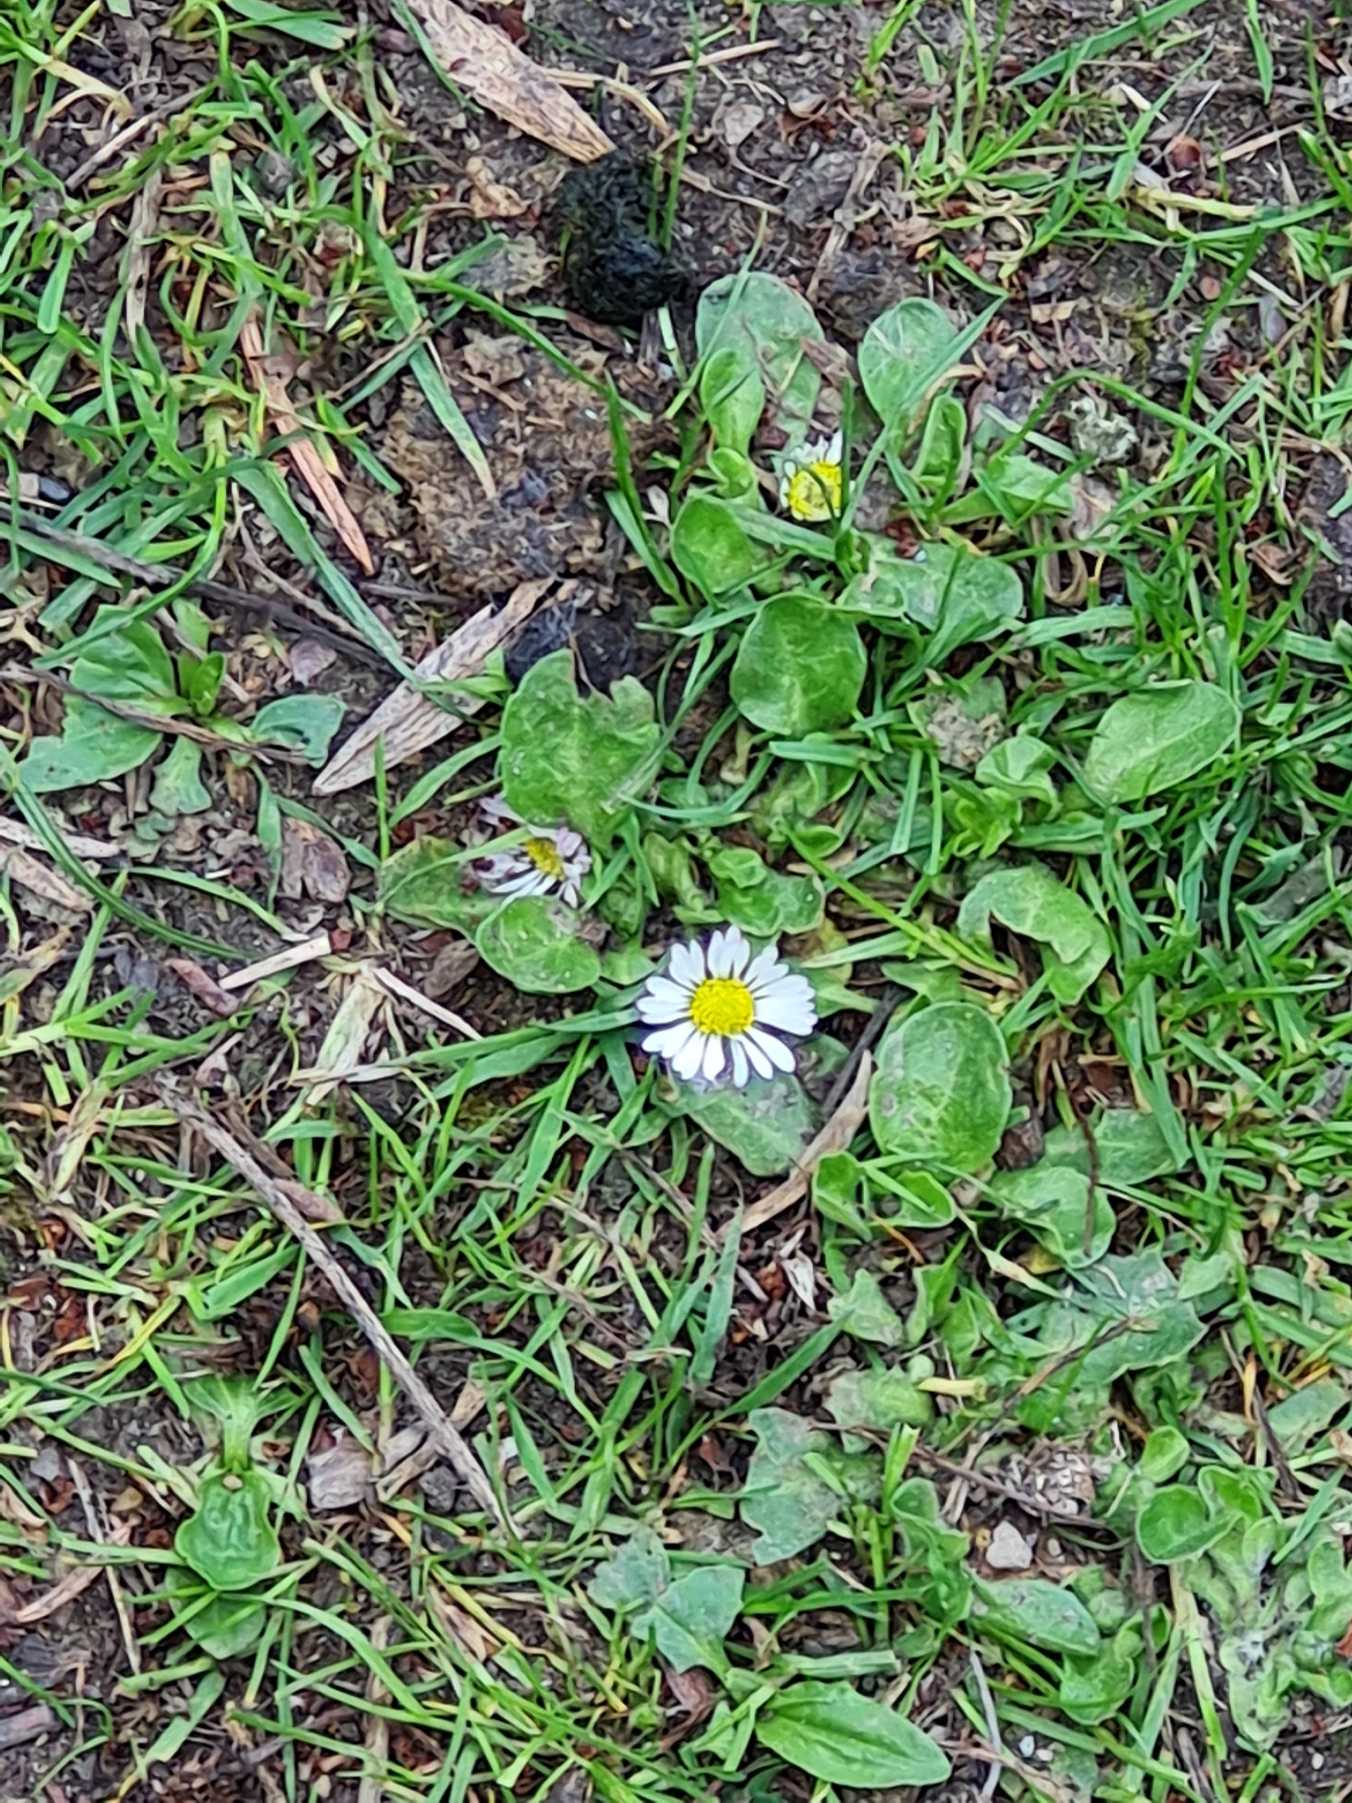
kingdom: Plantae
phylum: Tracheophyta
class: Magnoliopsida
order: Asterales
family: Asteraceae
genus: Bellis
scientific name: Bellis perennis
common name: Tusindfryd
